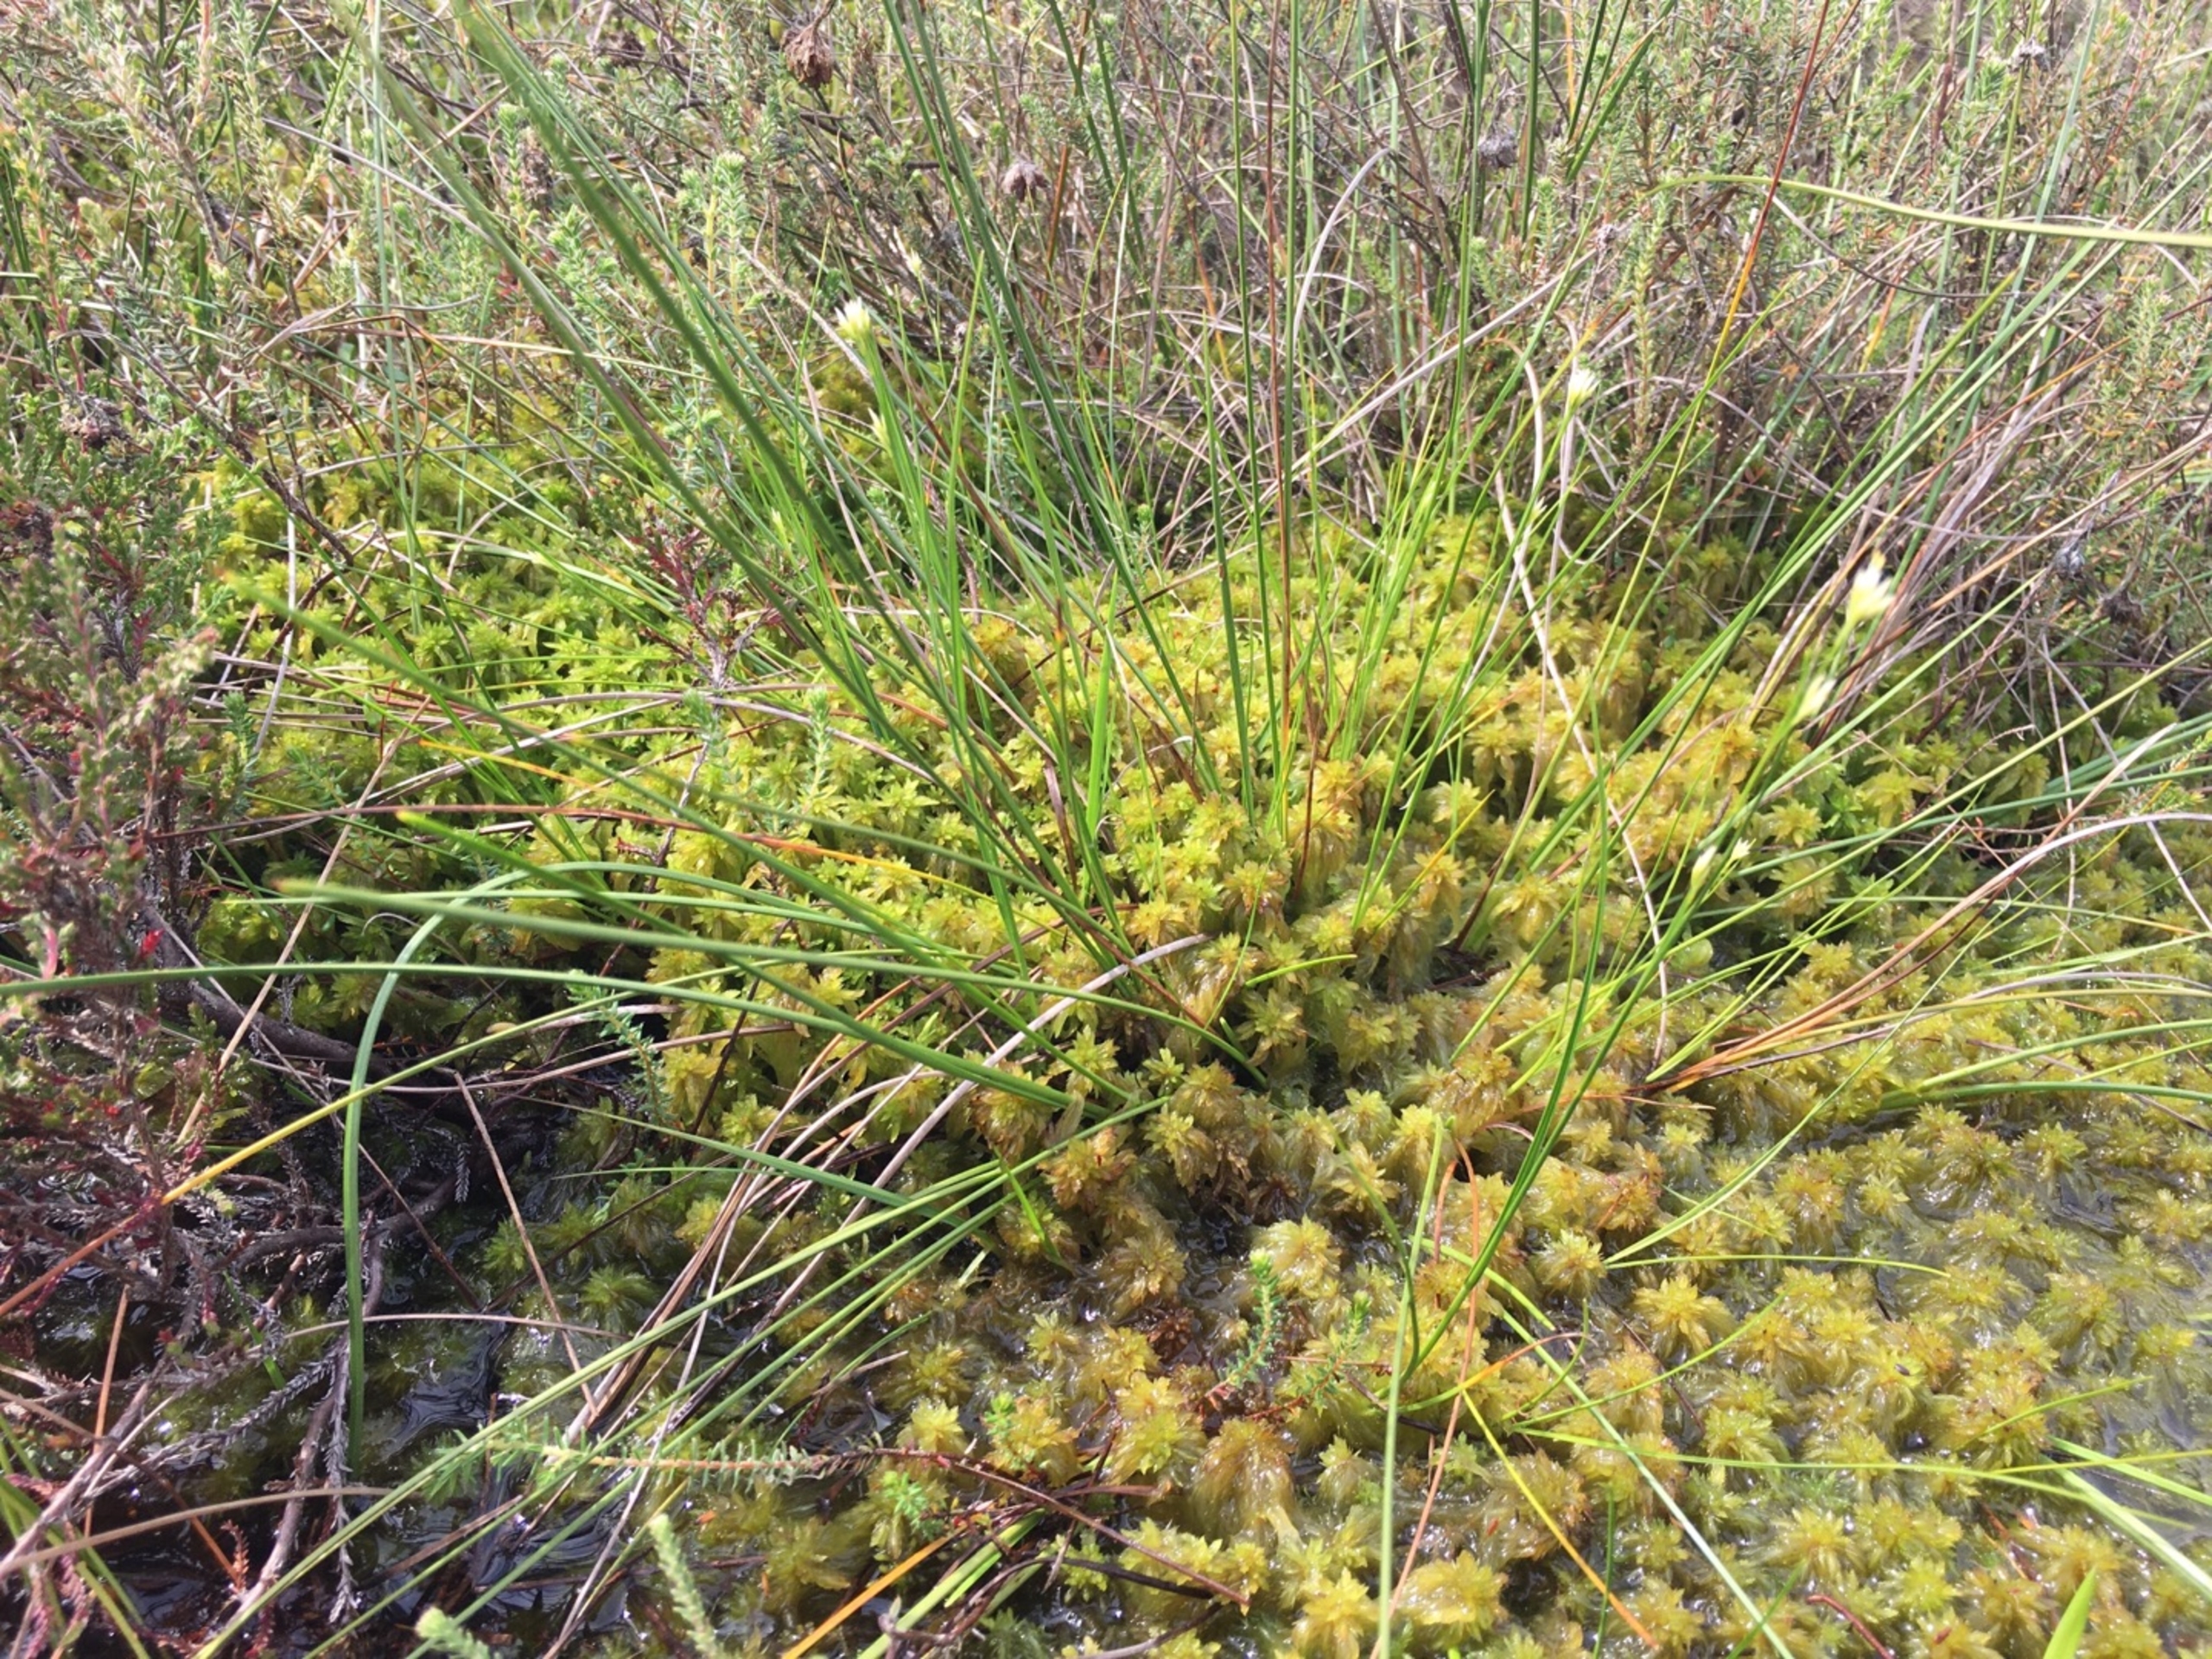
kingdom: Plantae
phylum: Tracheophyta
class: Liliopsida
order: Poales
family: Cyperaceae
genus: Rhynchospora
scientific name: Rhynchospora alba
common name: Hvid næbfrø
